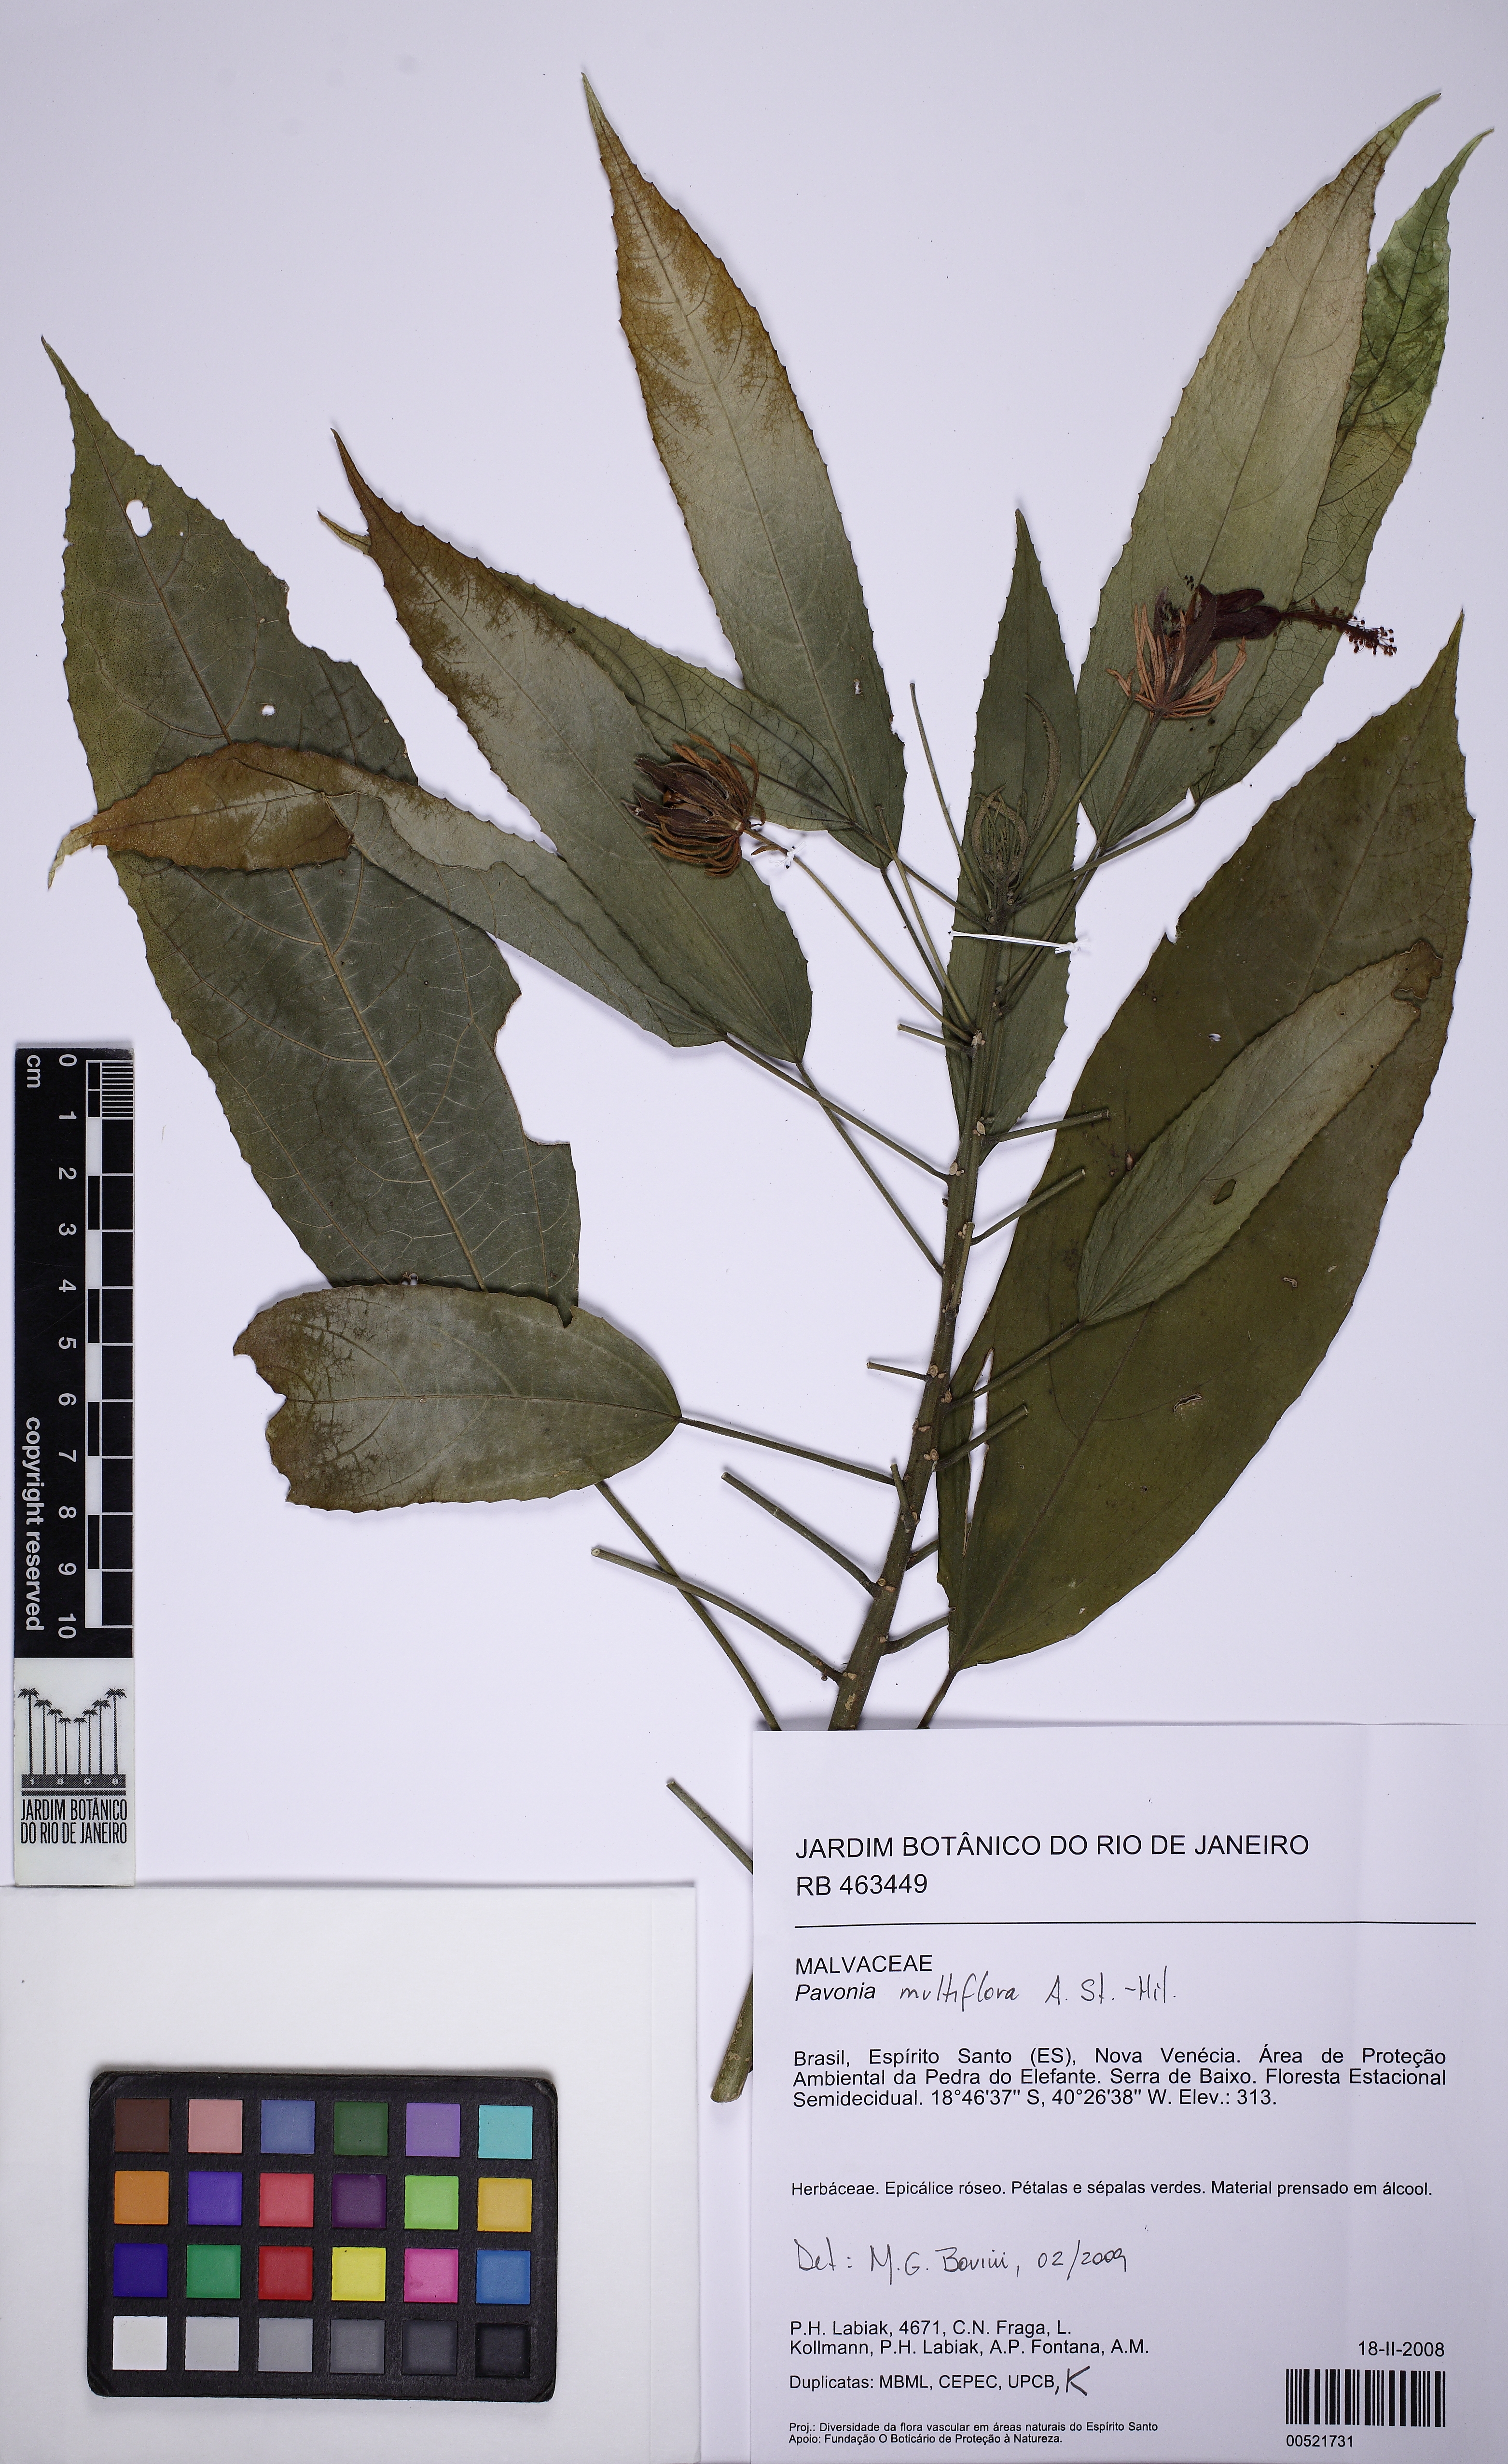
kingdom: Plantae
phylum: Tracheophyta
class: Magnoliopsida
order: Malvales
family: Malvaceae
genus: Pavonia
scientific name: Pavonia multiflora
